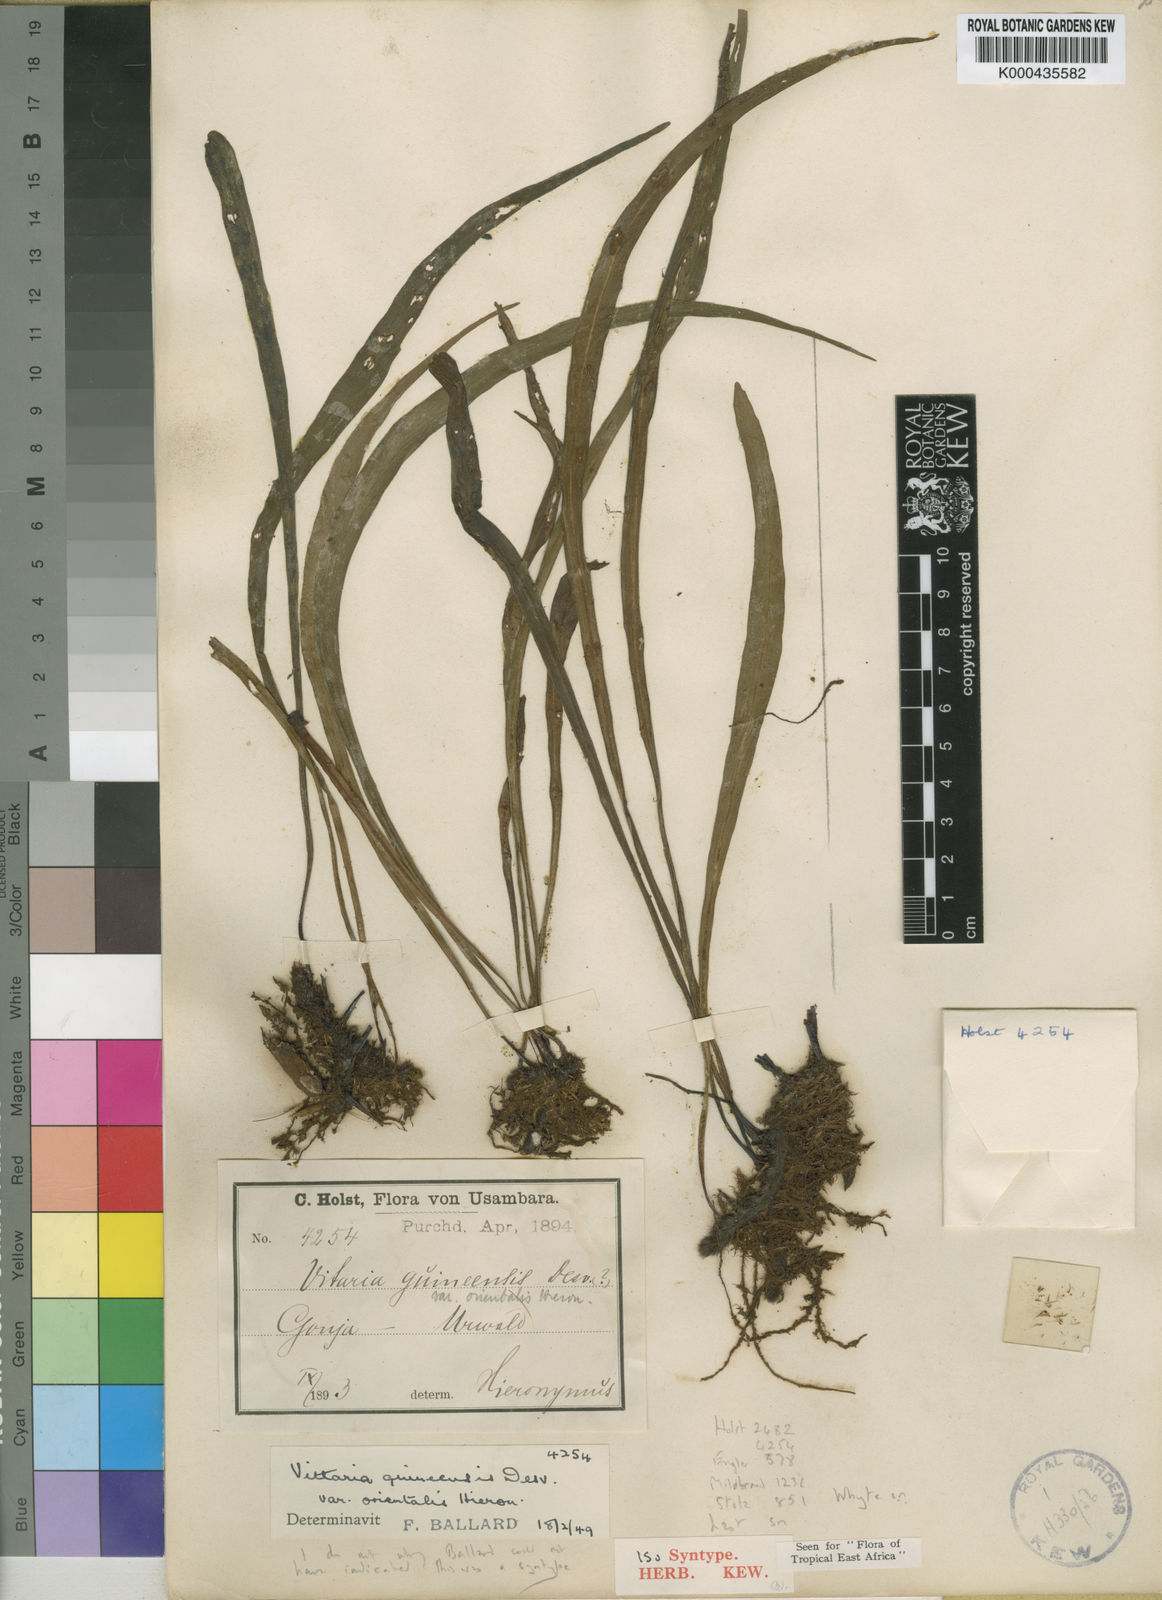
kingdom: Plantae
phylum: Tracheophyta
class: Polypodiopsida
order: Polypodiales
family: Pteridaceae
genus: Haplopteris
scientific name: Haplopteris guineensis
